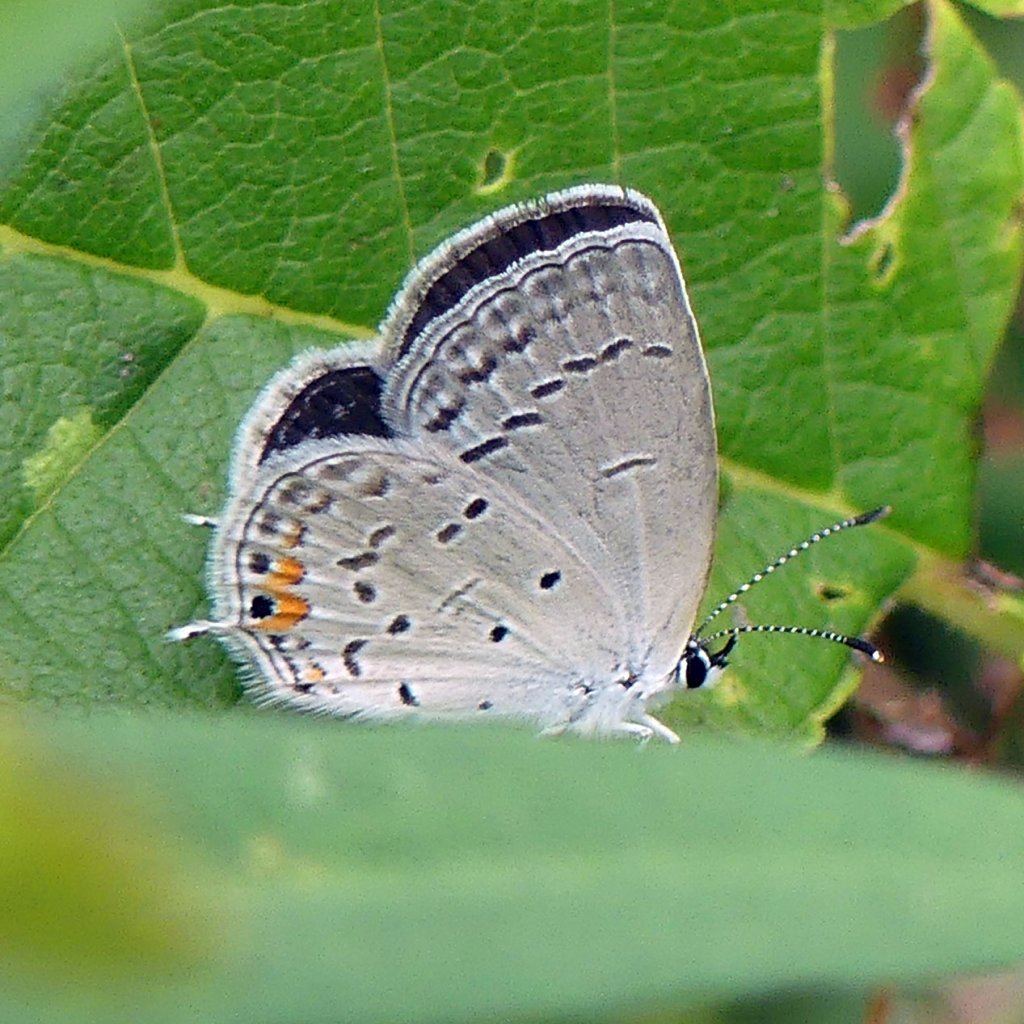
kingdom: Animalia
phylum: Arthropoda
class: Insecta
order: Lepidoptera
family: Lycaenidae
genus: Elkalyce
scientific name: Elkalyce comyntas
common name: Eastern Tailed-Blue
